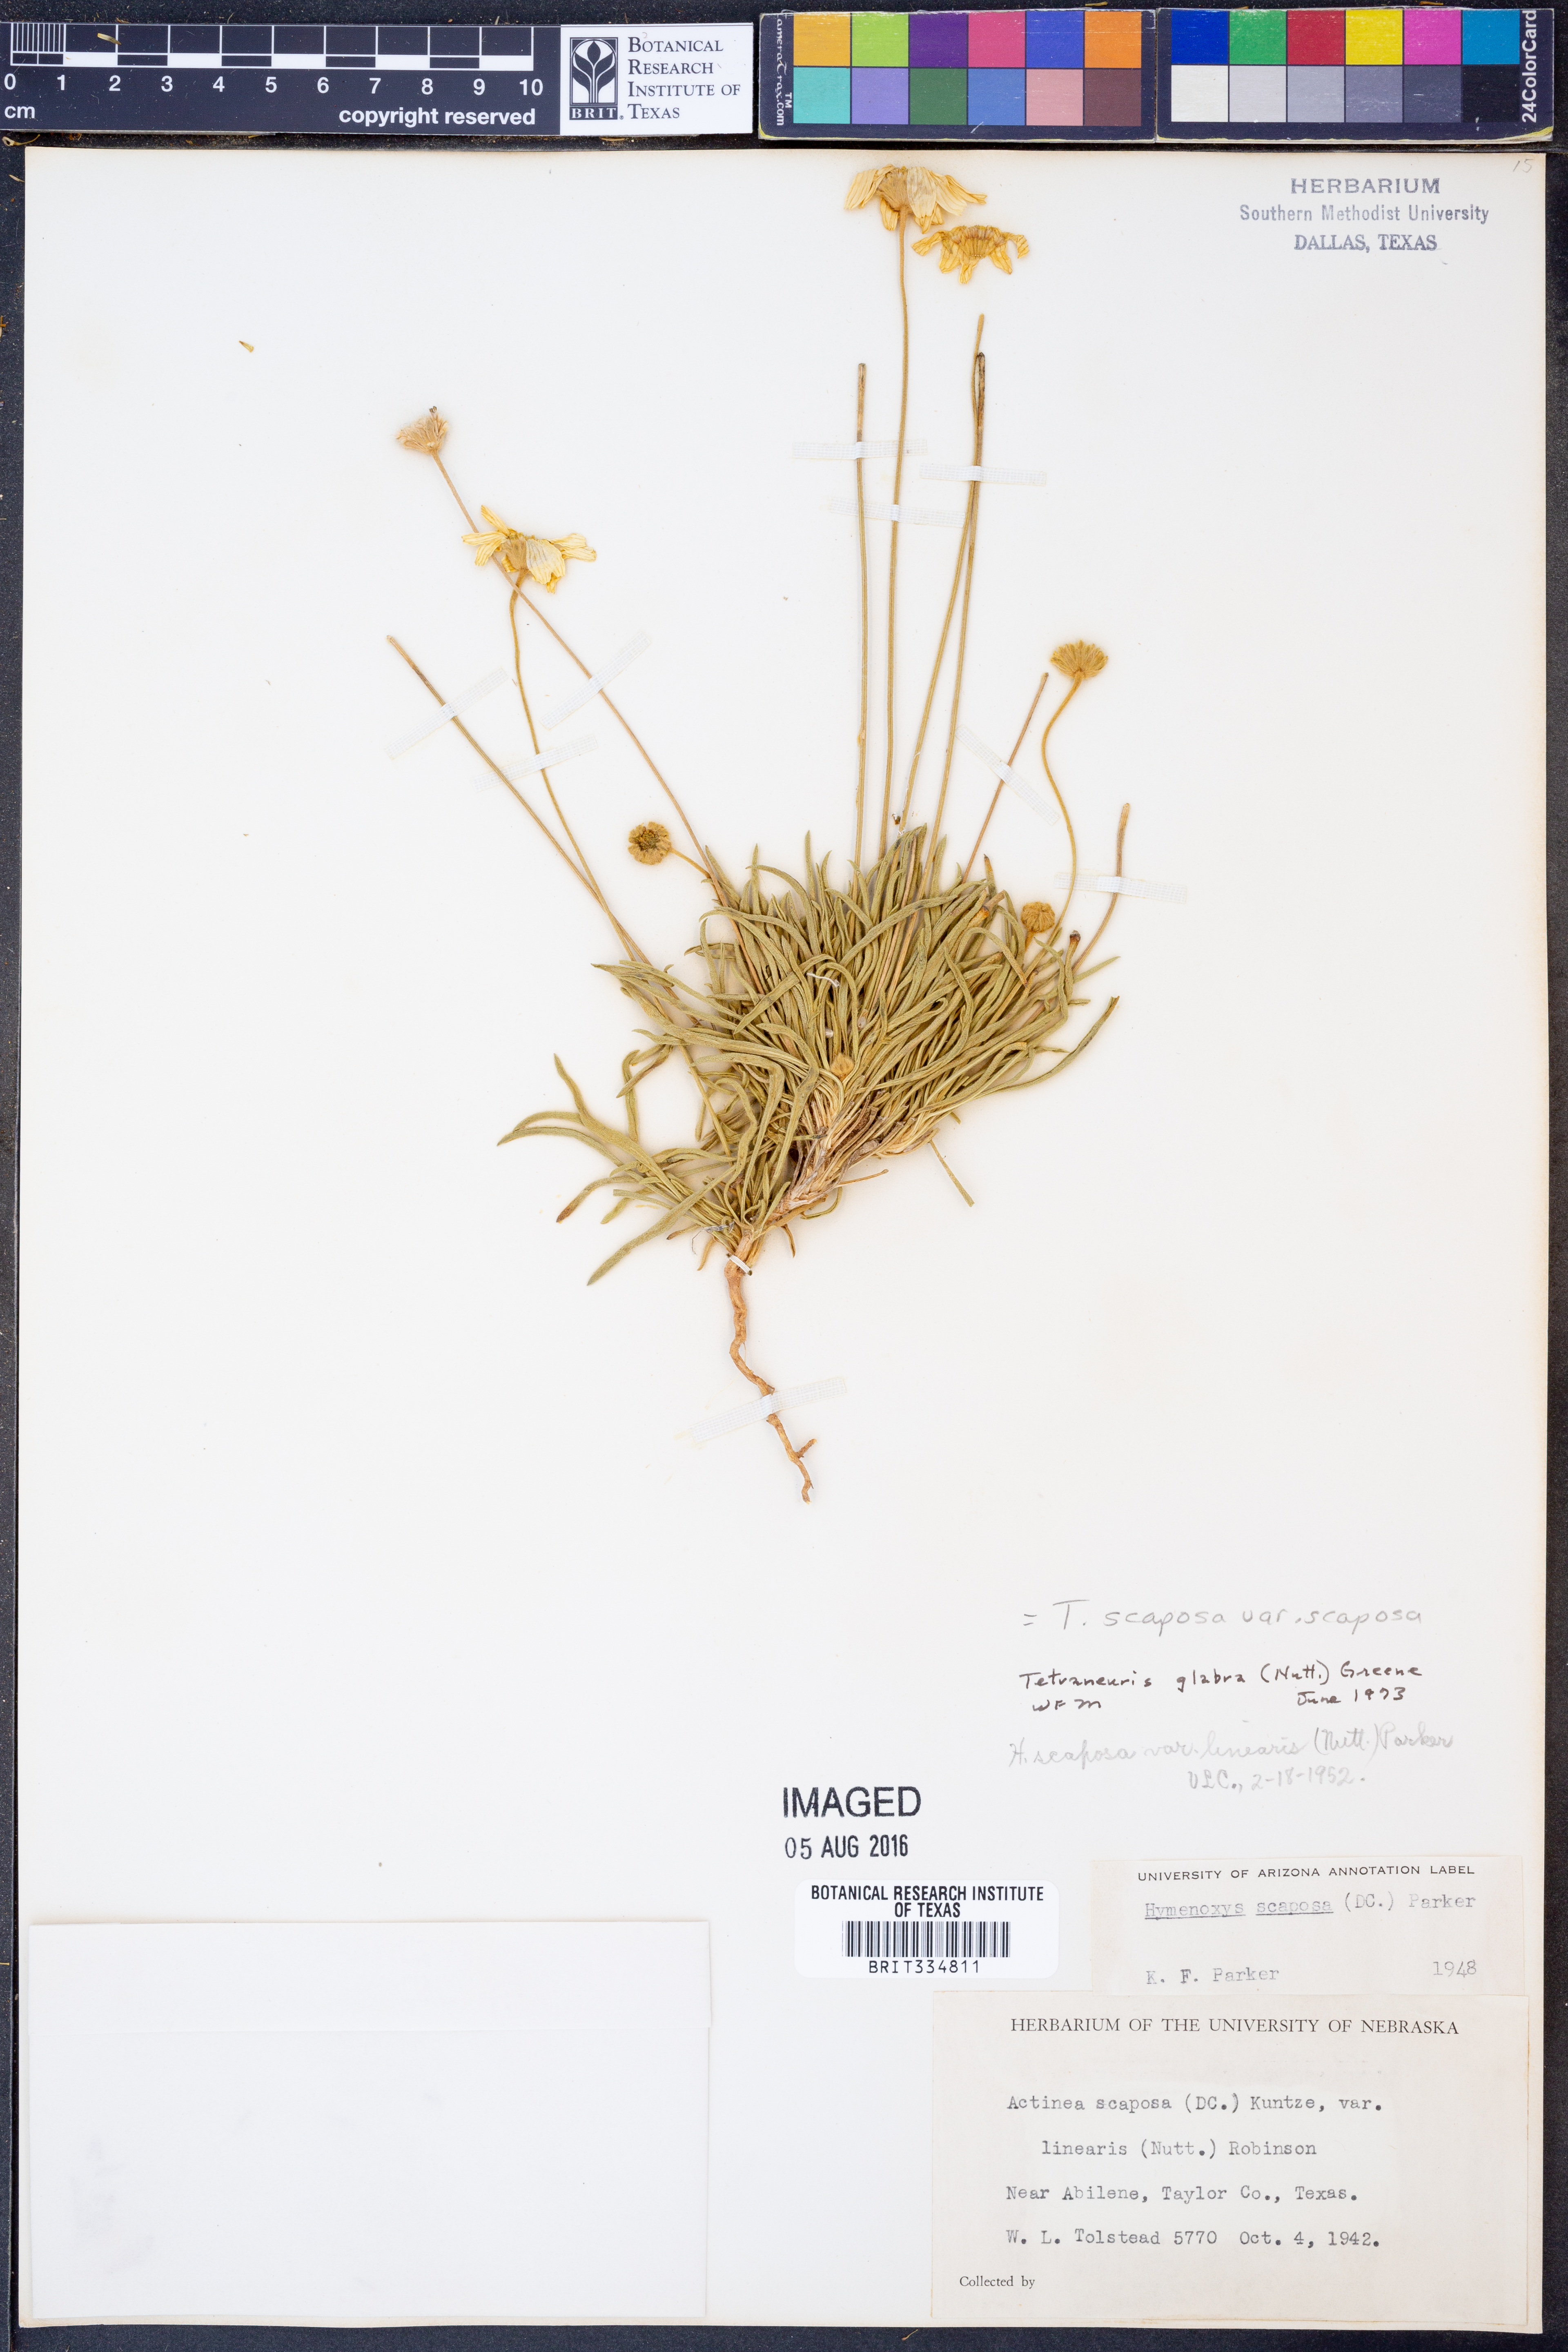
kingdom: Plantae
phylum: Tracheophyta
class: Magnoliopsida
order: Asterales
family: Asteraceae
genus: Tetraneuris
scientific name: Tetraneuris scaposa
